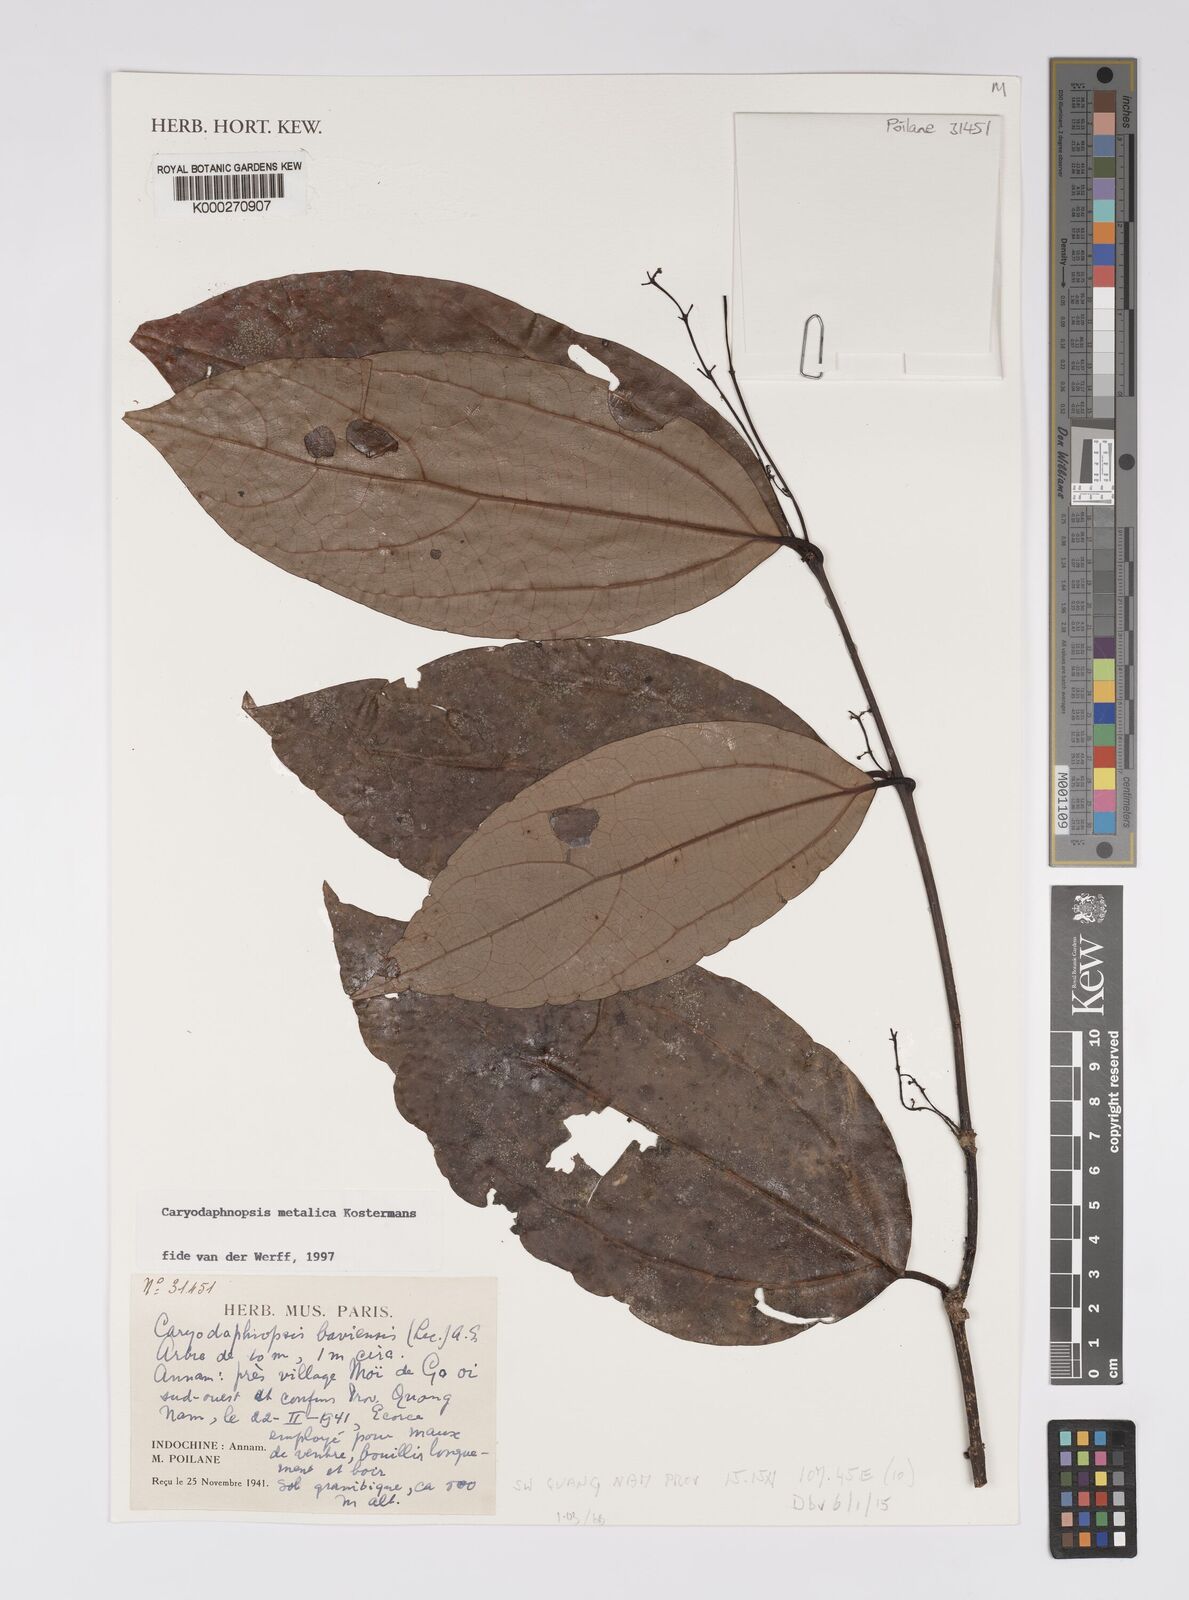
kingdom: Plantae
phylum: Tracheophyta
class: Magnoliopsida
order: Laurales
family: Lauraceae
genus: Caryodaphnopsis
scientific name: Caryodaphnopsis metallica
